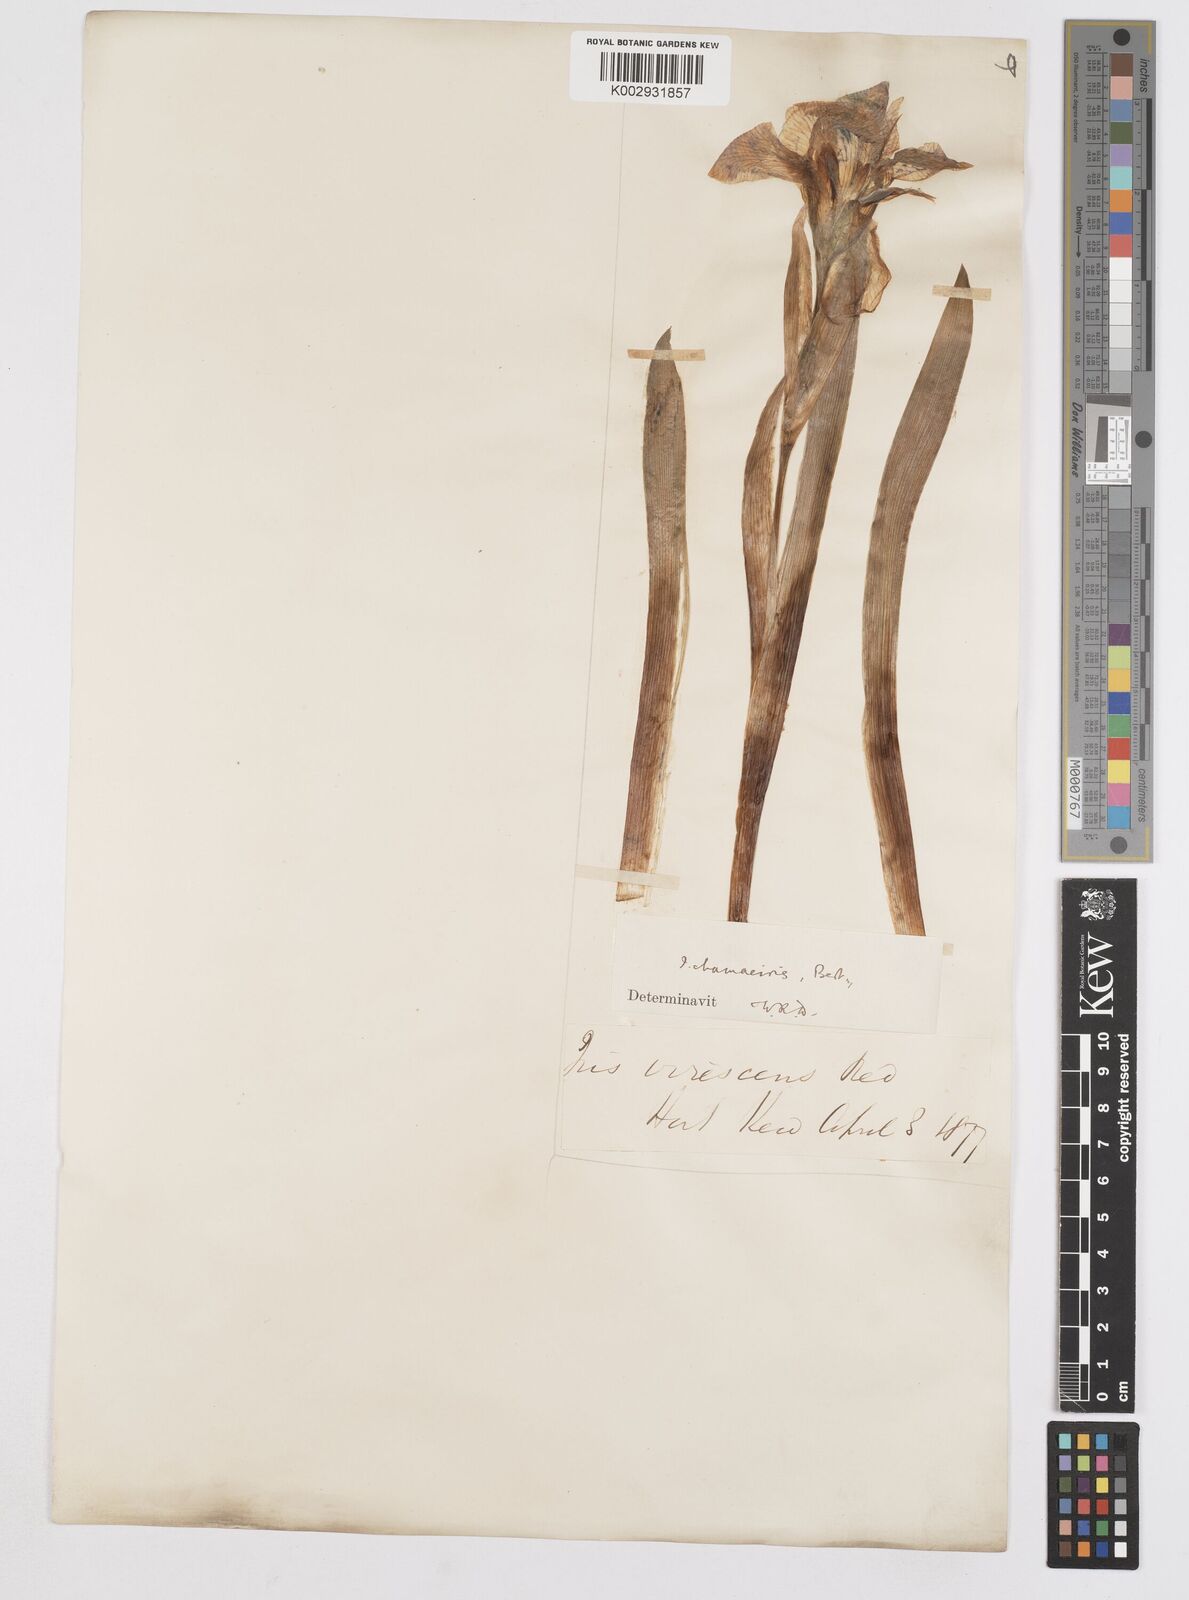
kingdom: Plantae
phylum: Tracheophyta
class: Liliopsida
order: Asparagales
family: Iridaceae
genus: Iris
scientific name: Iris lutescens
